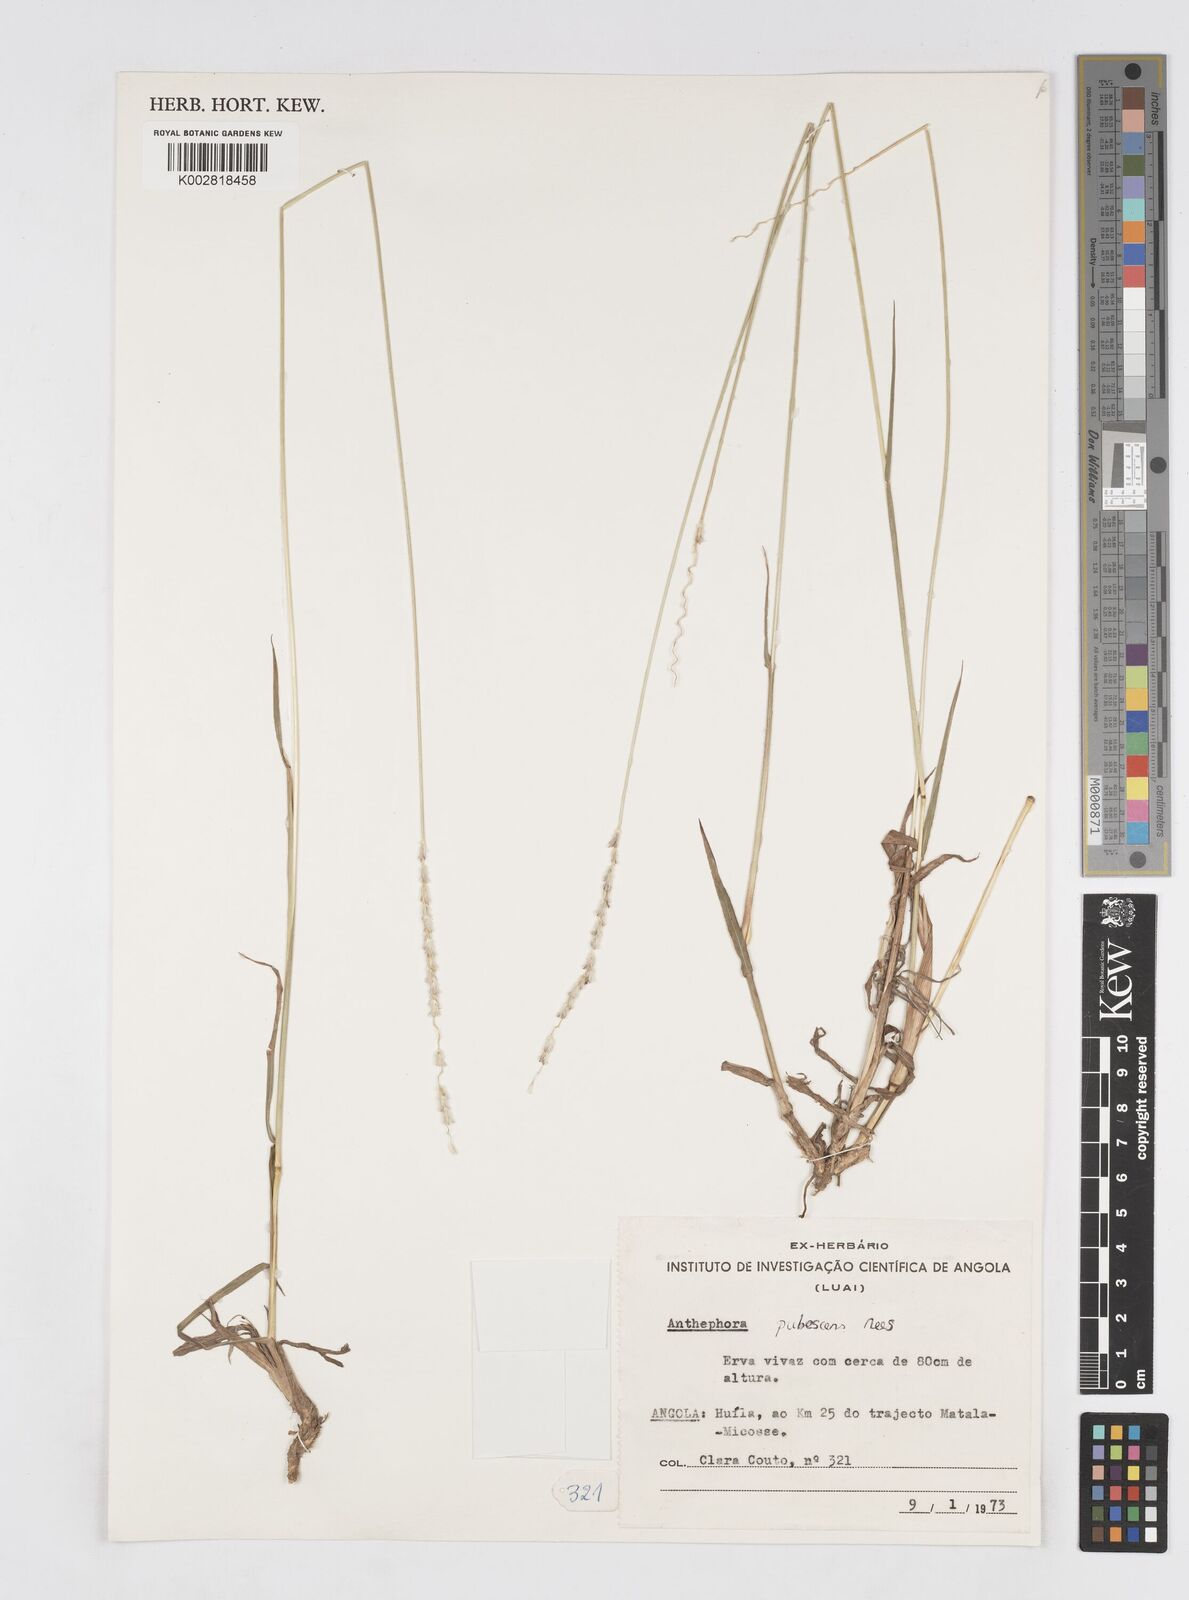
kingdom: Plantae
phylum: Tracheophyta
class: Liliopsida
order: Poales
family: Poaceae
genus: Anthephora
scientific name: Anthephora pubescens
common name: Wool grass
